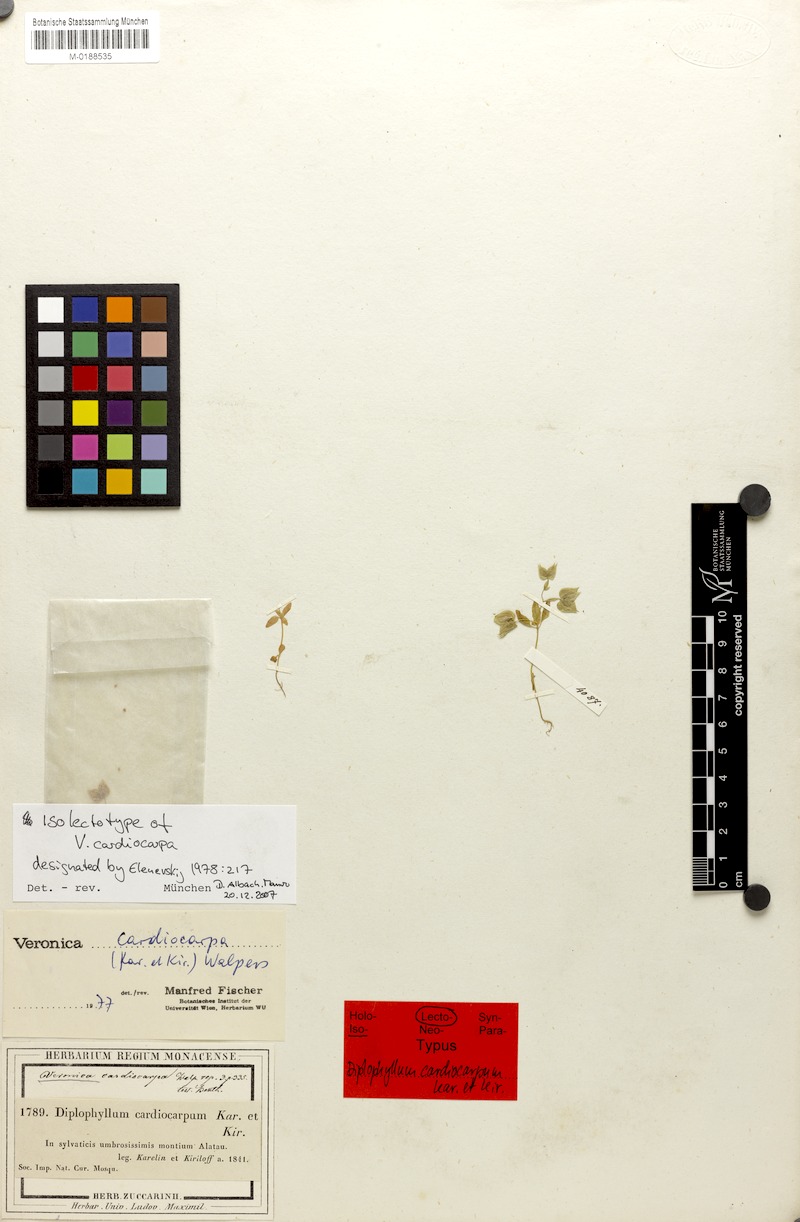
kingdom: Plantae
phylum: Tracheophyta
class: Magnoliopsida
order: Lamiales
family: Plantaginaceae
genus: Veronica
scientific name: Veronica cardiocarpa
